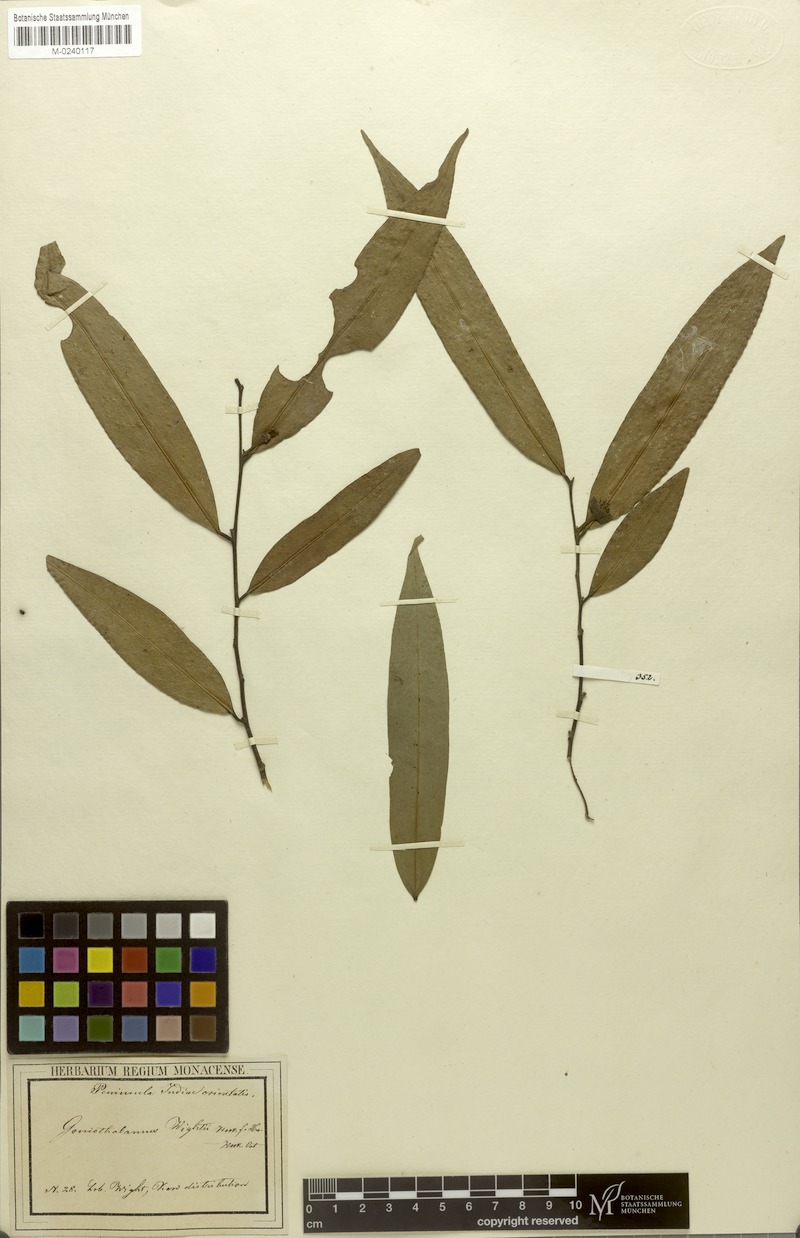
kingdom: Plantae
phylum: Tracheophyta
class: Magnoliopsida
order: Magnoliales
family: Annonaceae
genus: Goniothalamus
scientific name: Goniothalamus wightii
